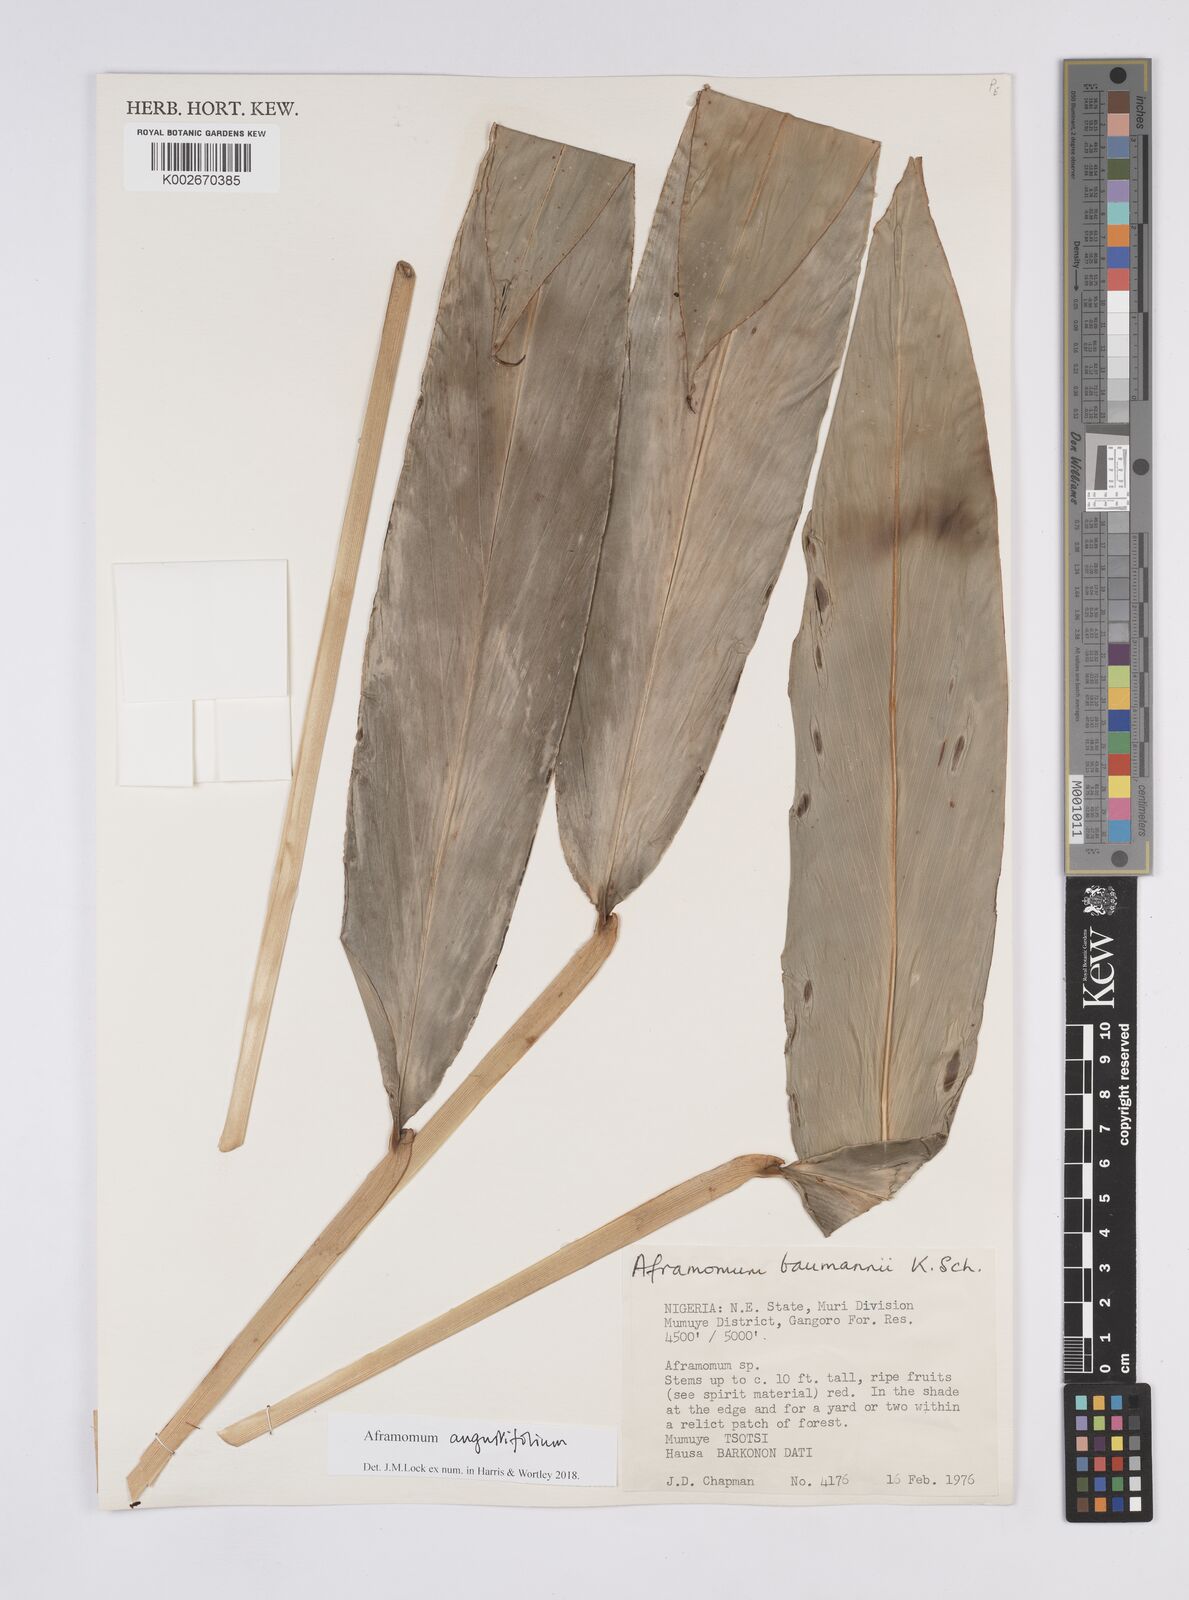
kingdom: Plantae
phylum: Tracheophyta
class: Liliopsida
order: Zingiberales
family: Zingiberaceae
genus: Aframomum
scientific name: Aframomum angustifolium
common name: Guinea grains
